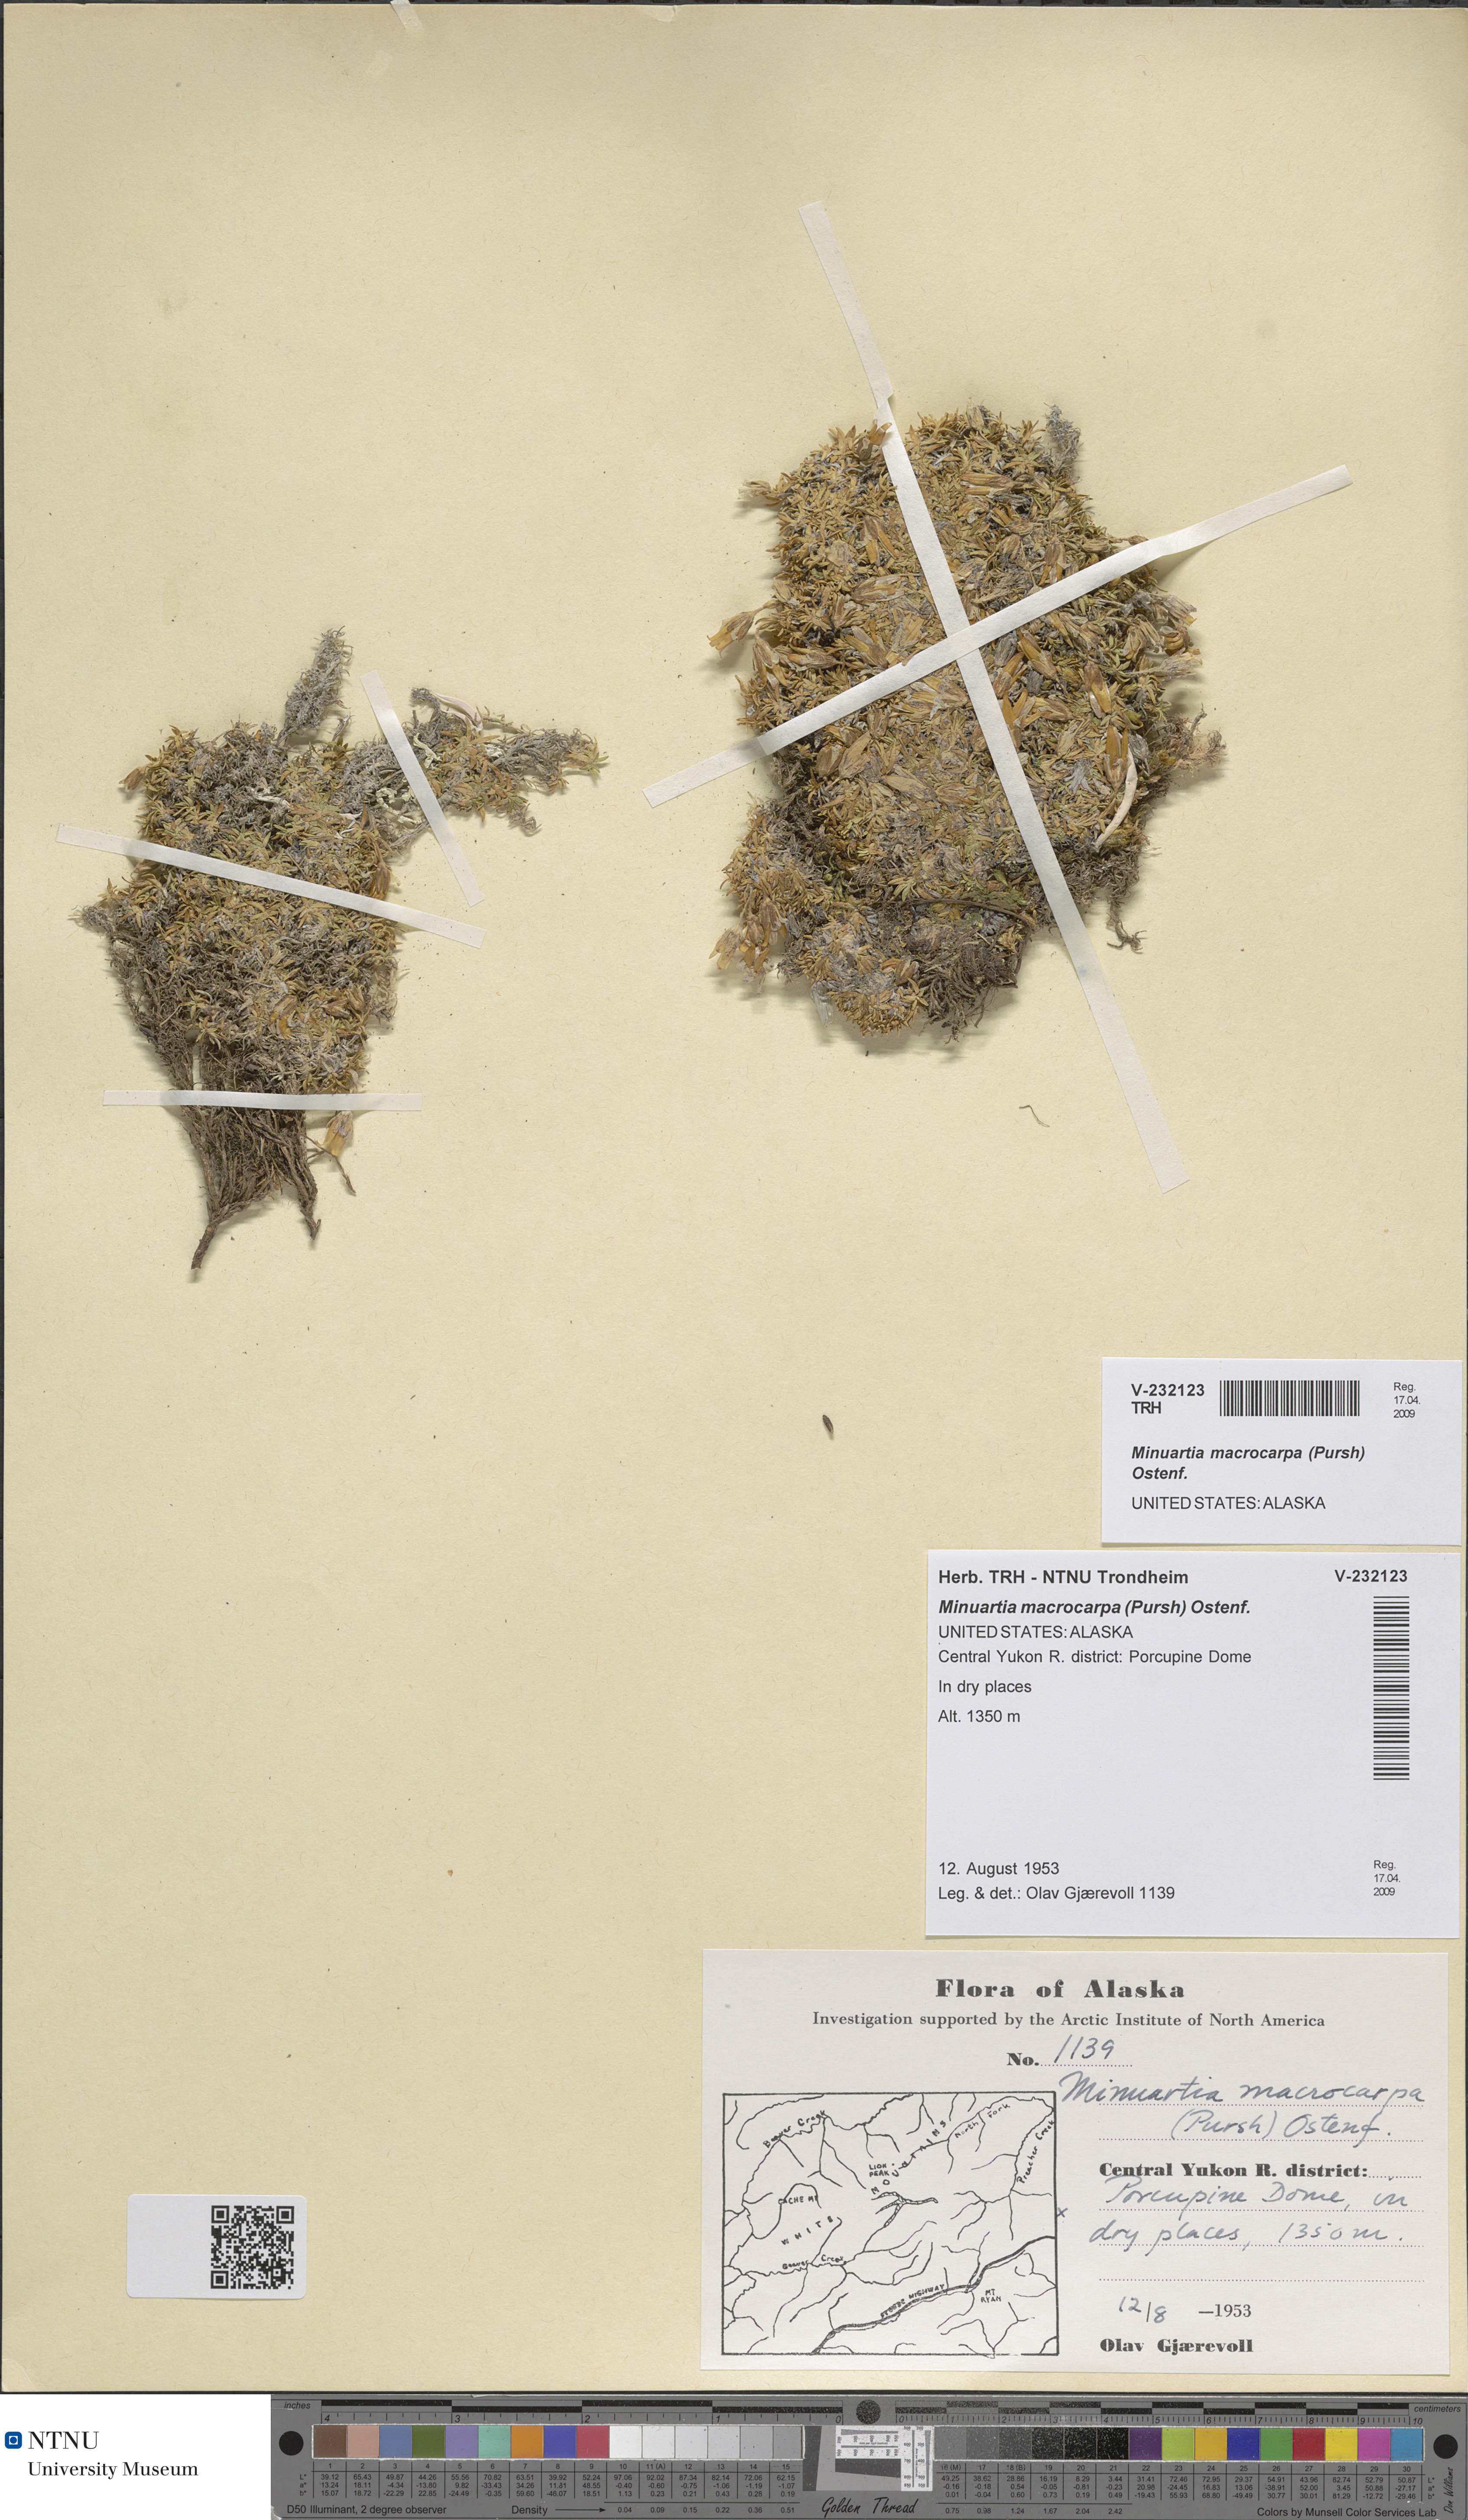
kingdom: Plantae
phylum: Tracheophyta
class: Magnoliopsida
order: Caryophyllales
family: Caryophyllaceae
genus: Pseudocherleria
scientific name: Pseudocherleria macrocarpa
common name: Large-fruit sandwort
